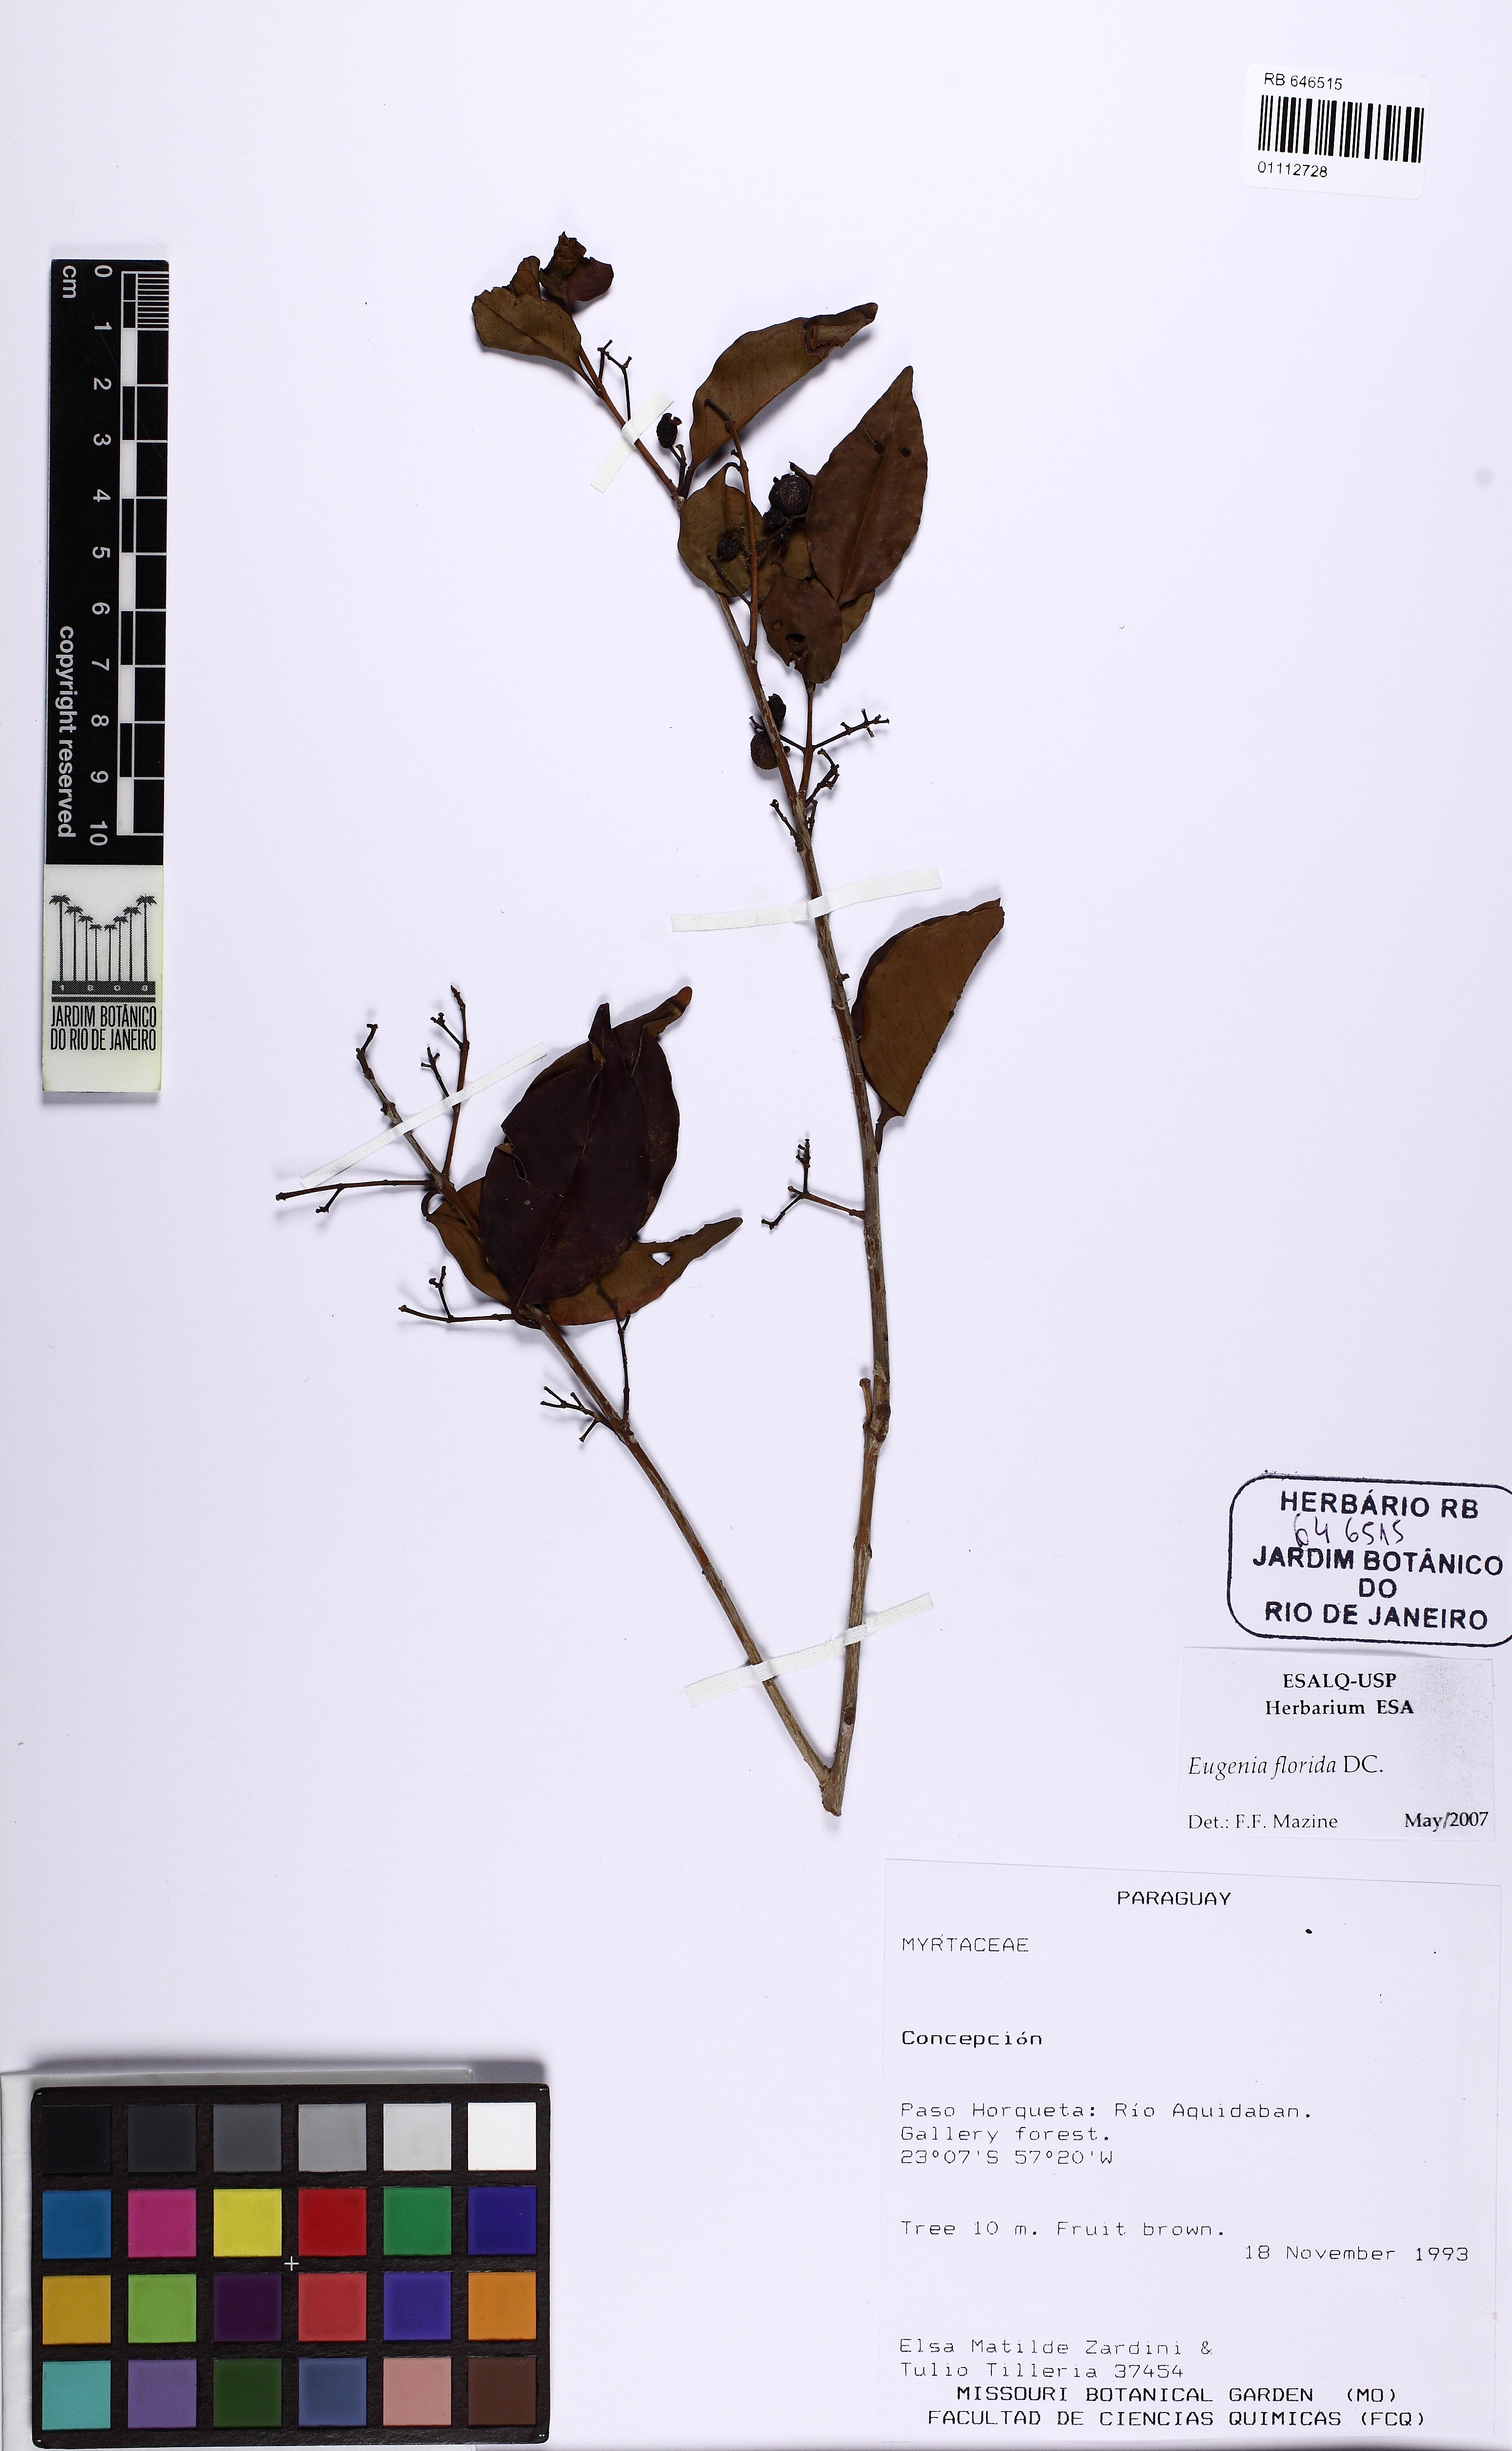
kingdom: Plantae
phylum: Tracheophyta
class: Magnoliopsida
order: Myrtales
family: Myrtaceae
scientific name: Myrtaceae
